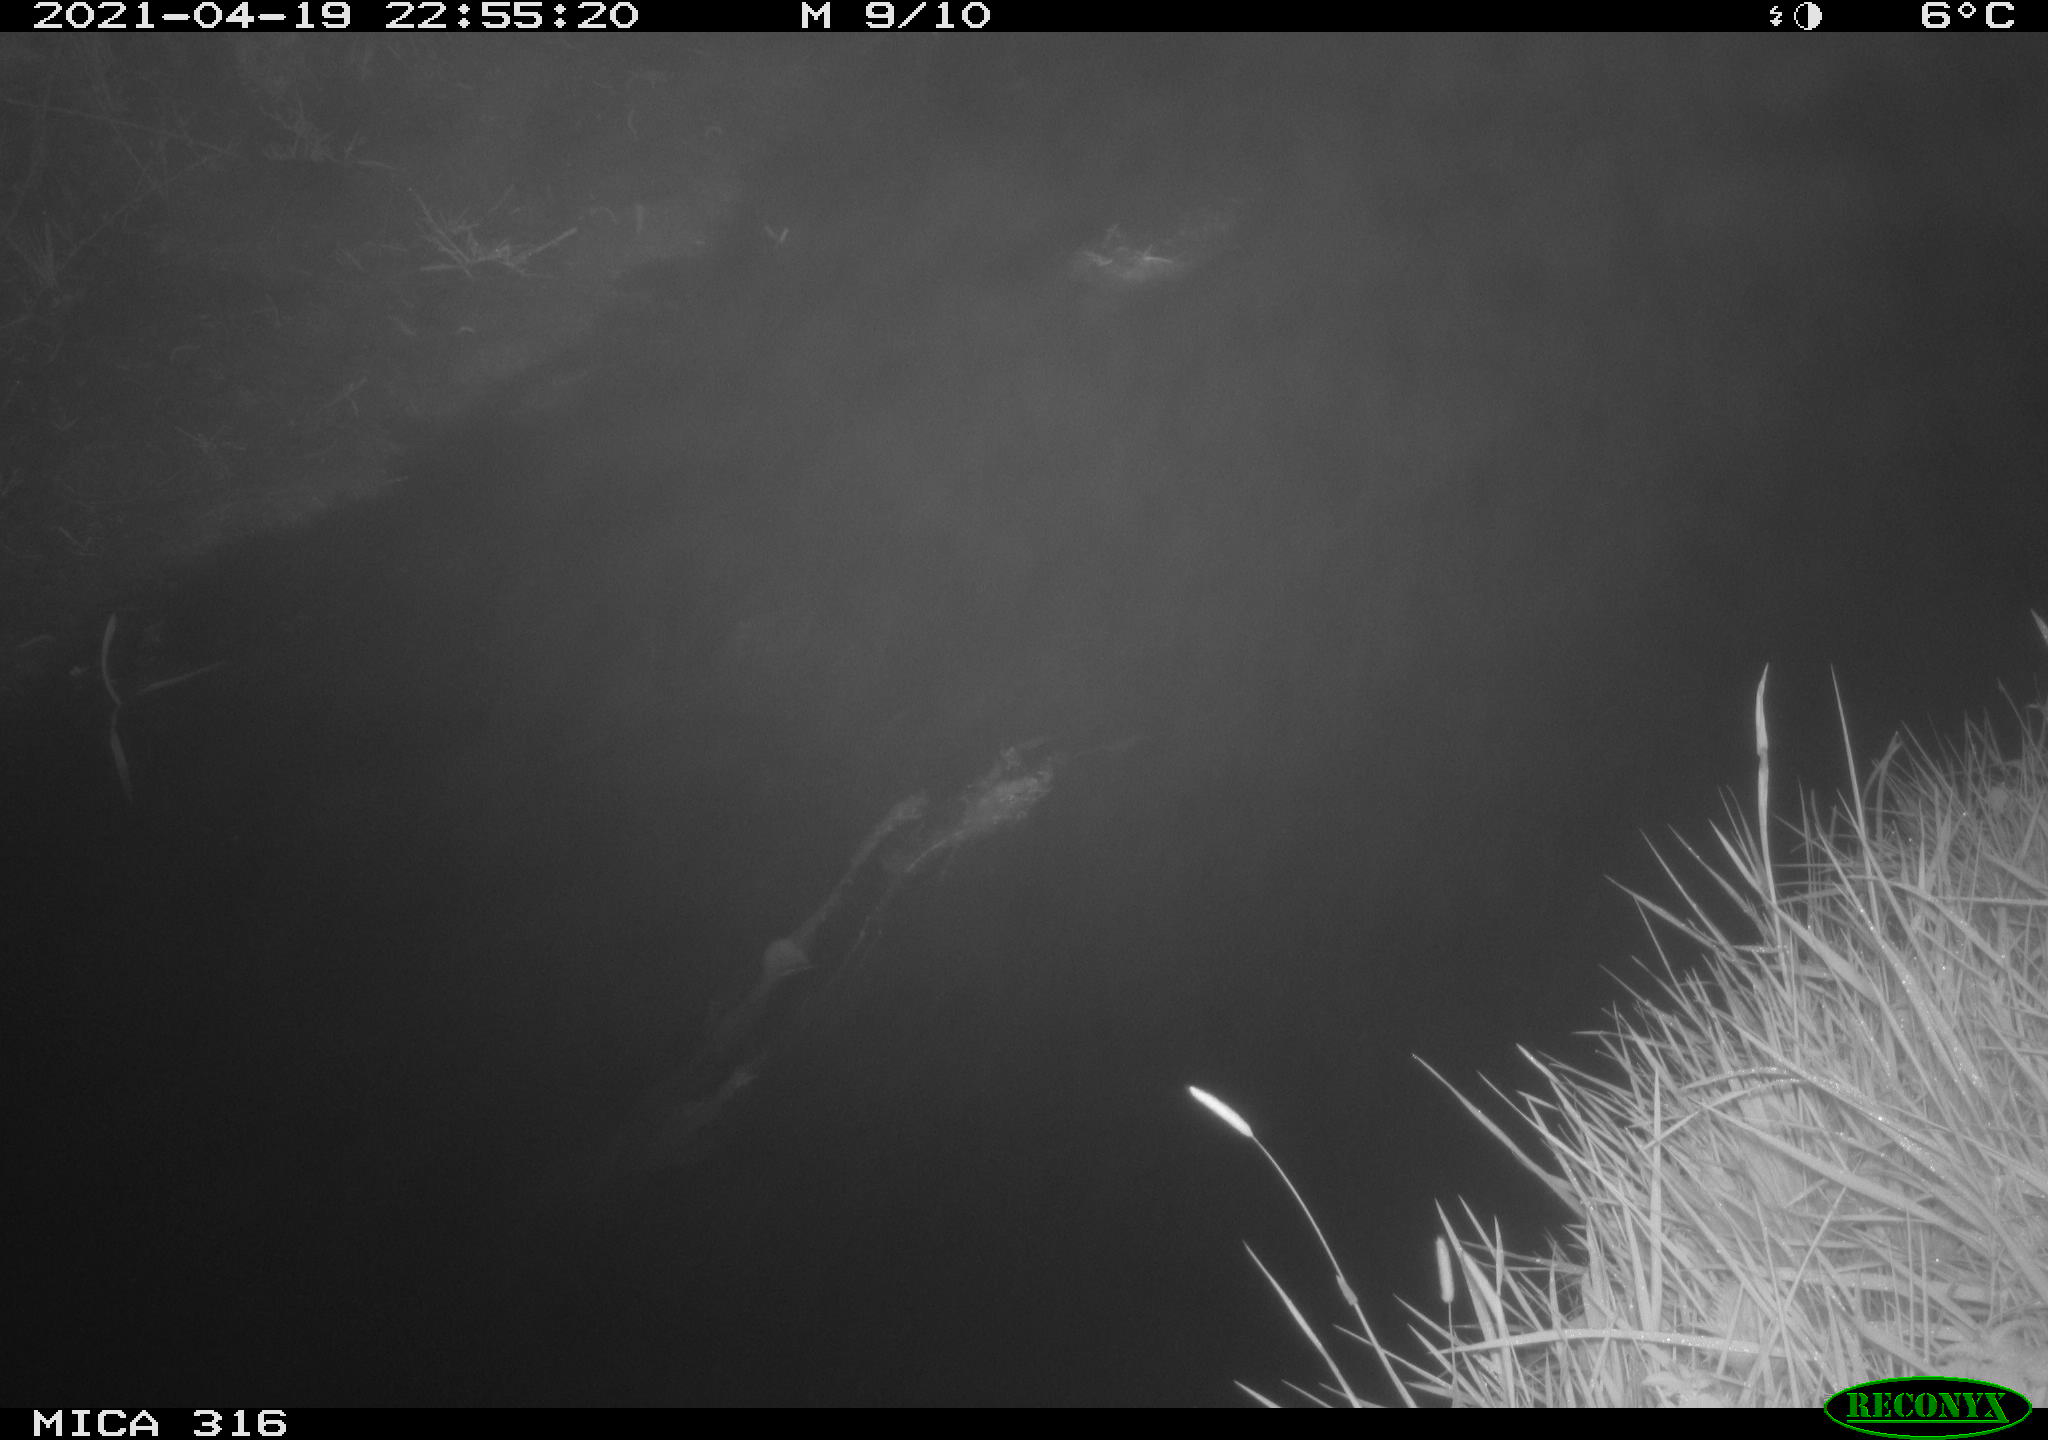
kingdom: Animalia
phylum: Chordata
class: Aves
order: Anseriformes
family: Anatidae
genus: Anas
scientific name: Anas platyrhynchos
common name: Mallard
